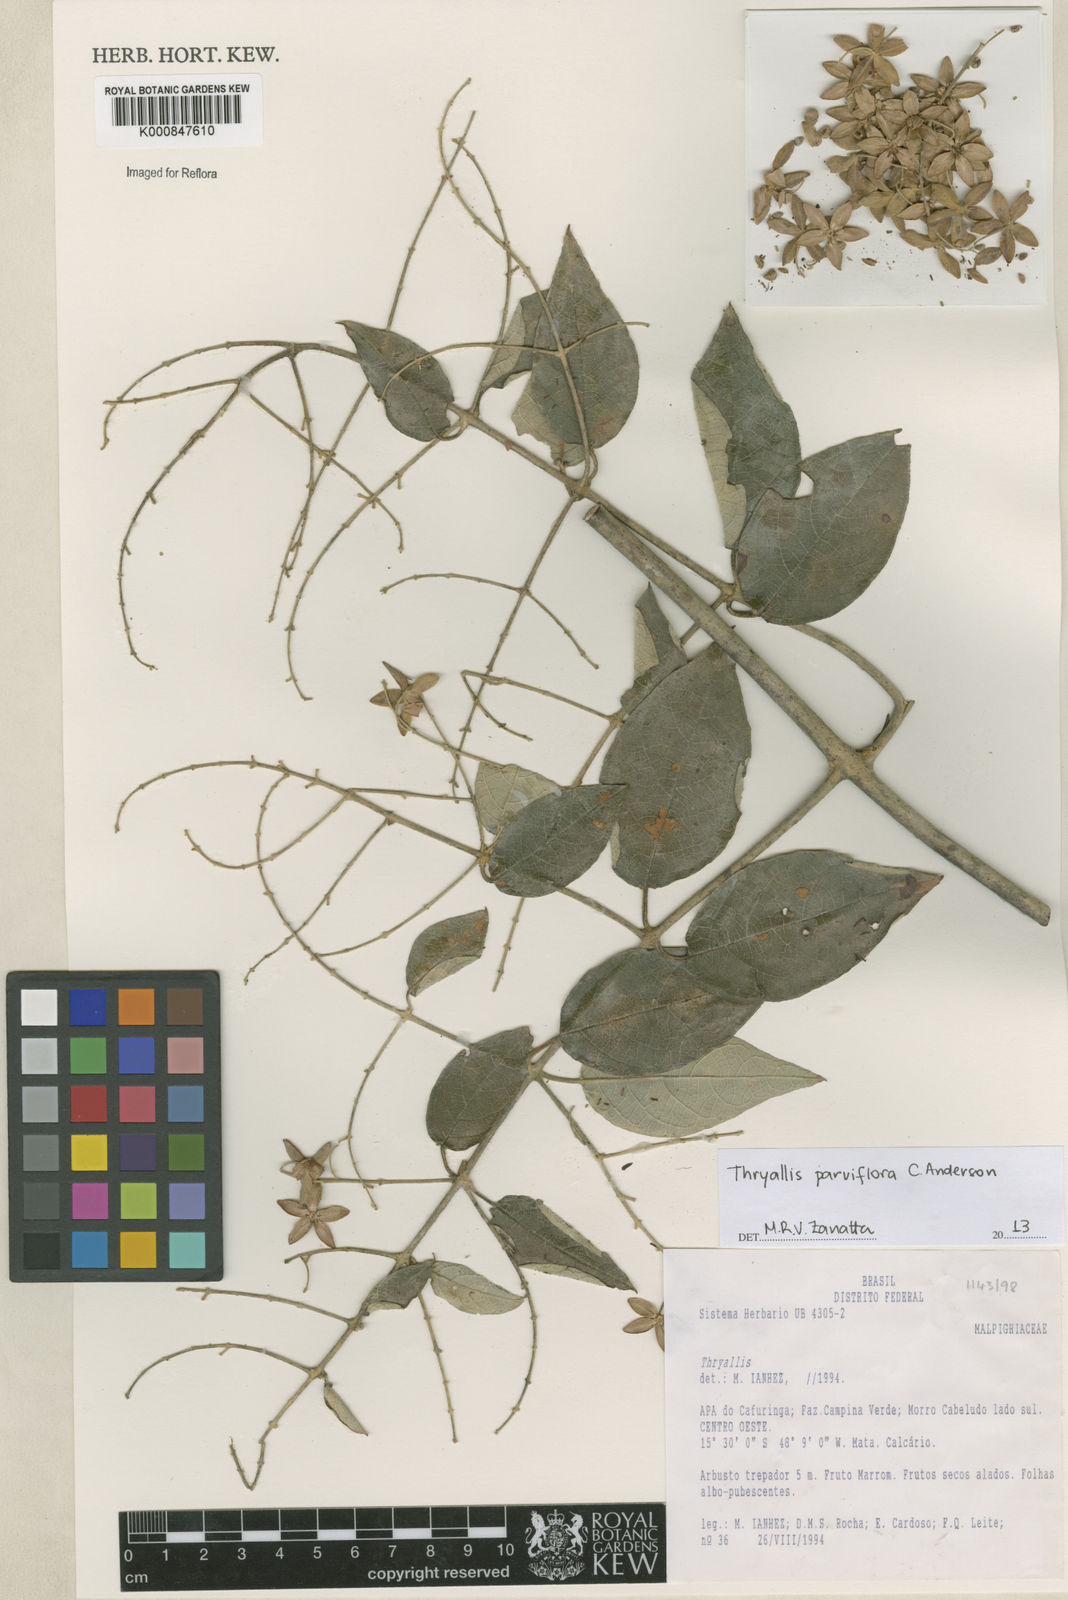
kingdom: Plantae
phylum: Tracheophyta
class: Magnoliopsida
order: Malpighiales
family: Malpighiaceae
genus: Thryallis
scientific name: Thryallis parviflora
